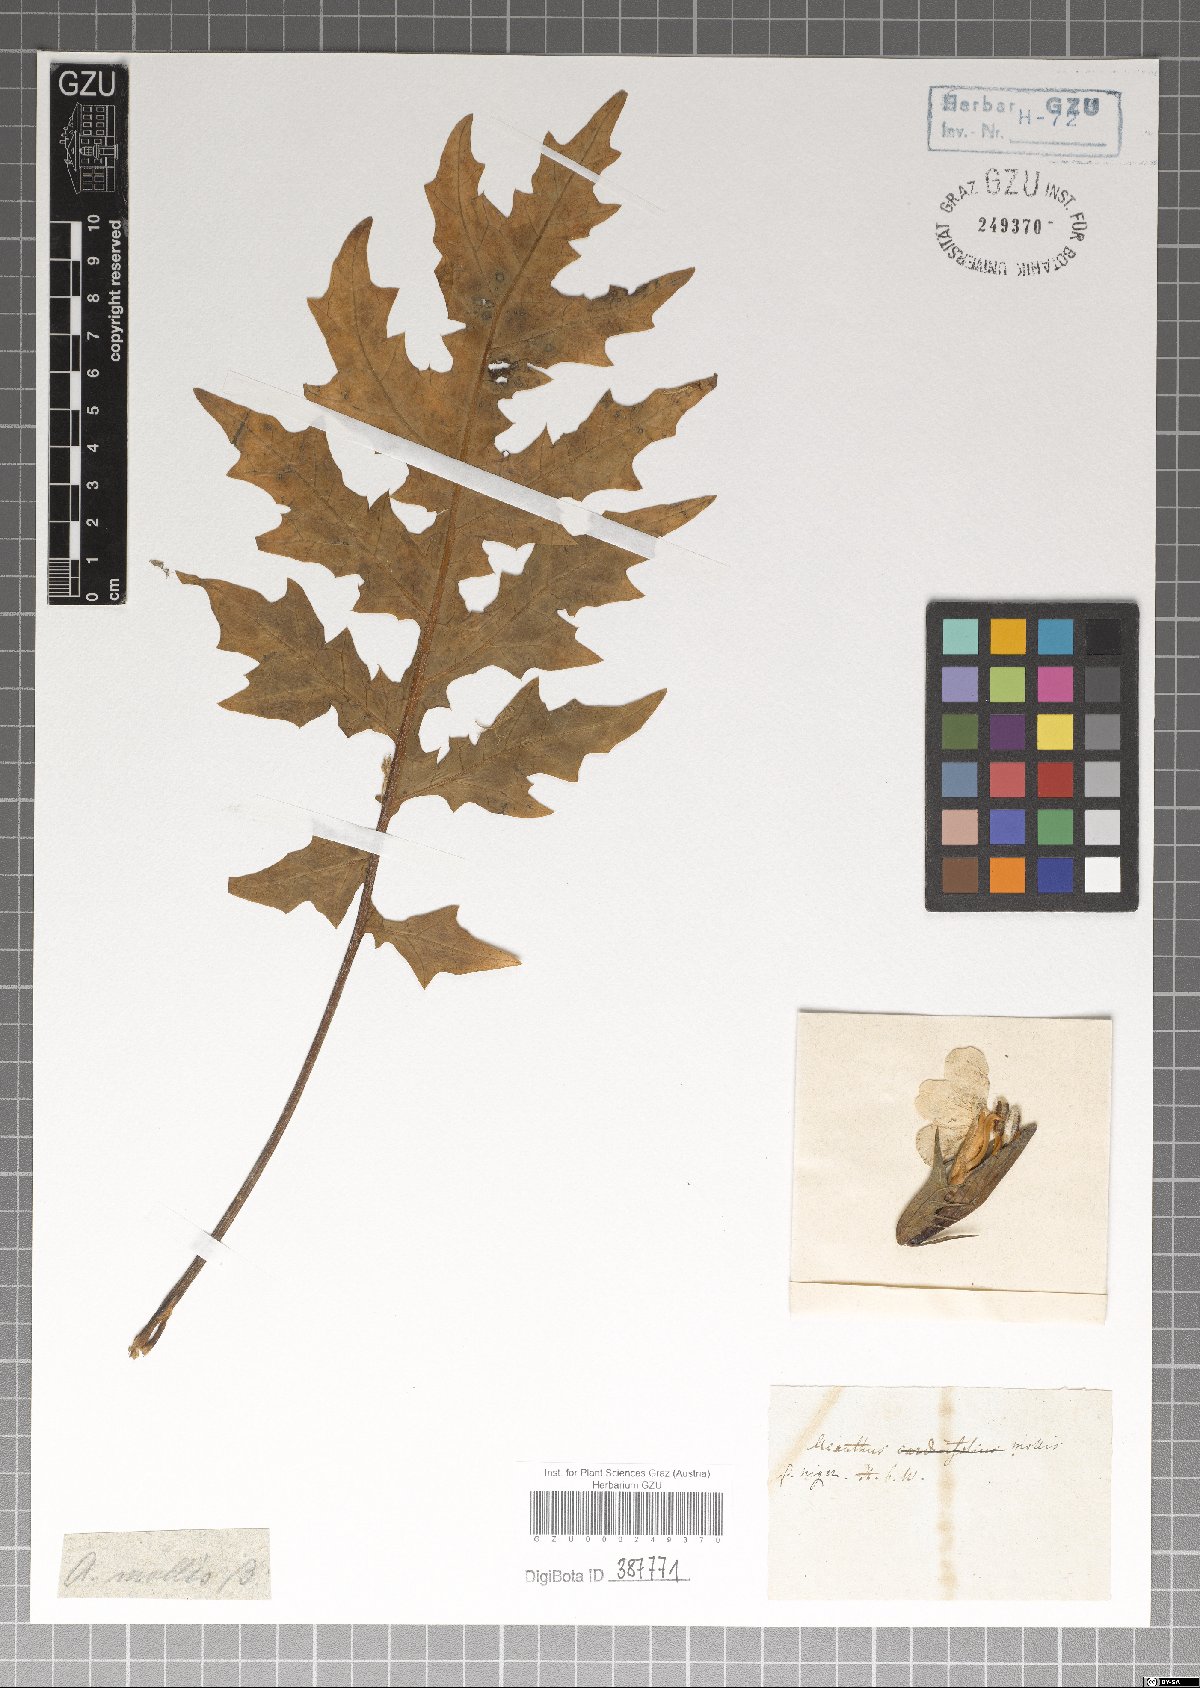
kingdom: Plantae
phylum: Tracheophyta
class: Magnoliopsida
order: Lamiales
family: Acanthaceae
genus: Acanthus
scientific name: Acanthus mollis
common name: Bear's-breech
